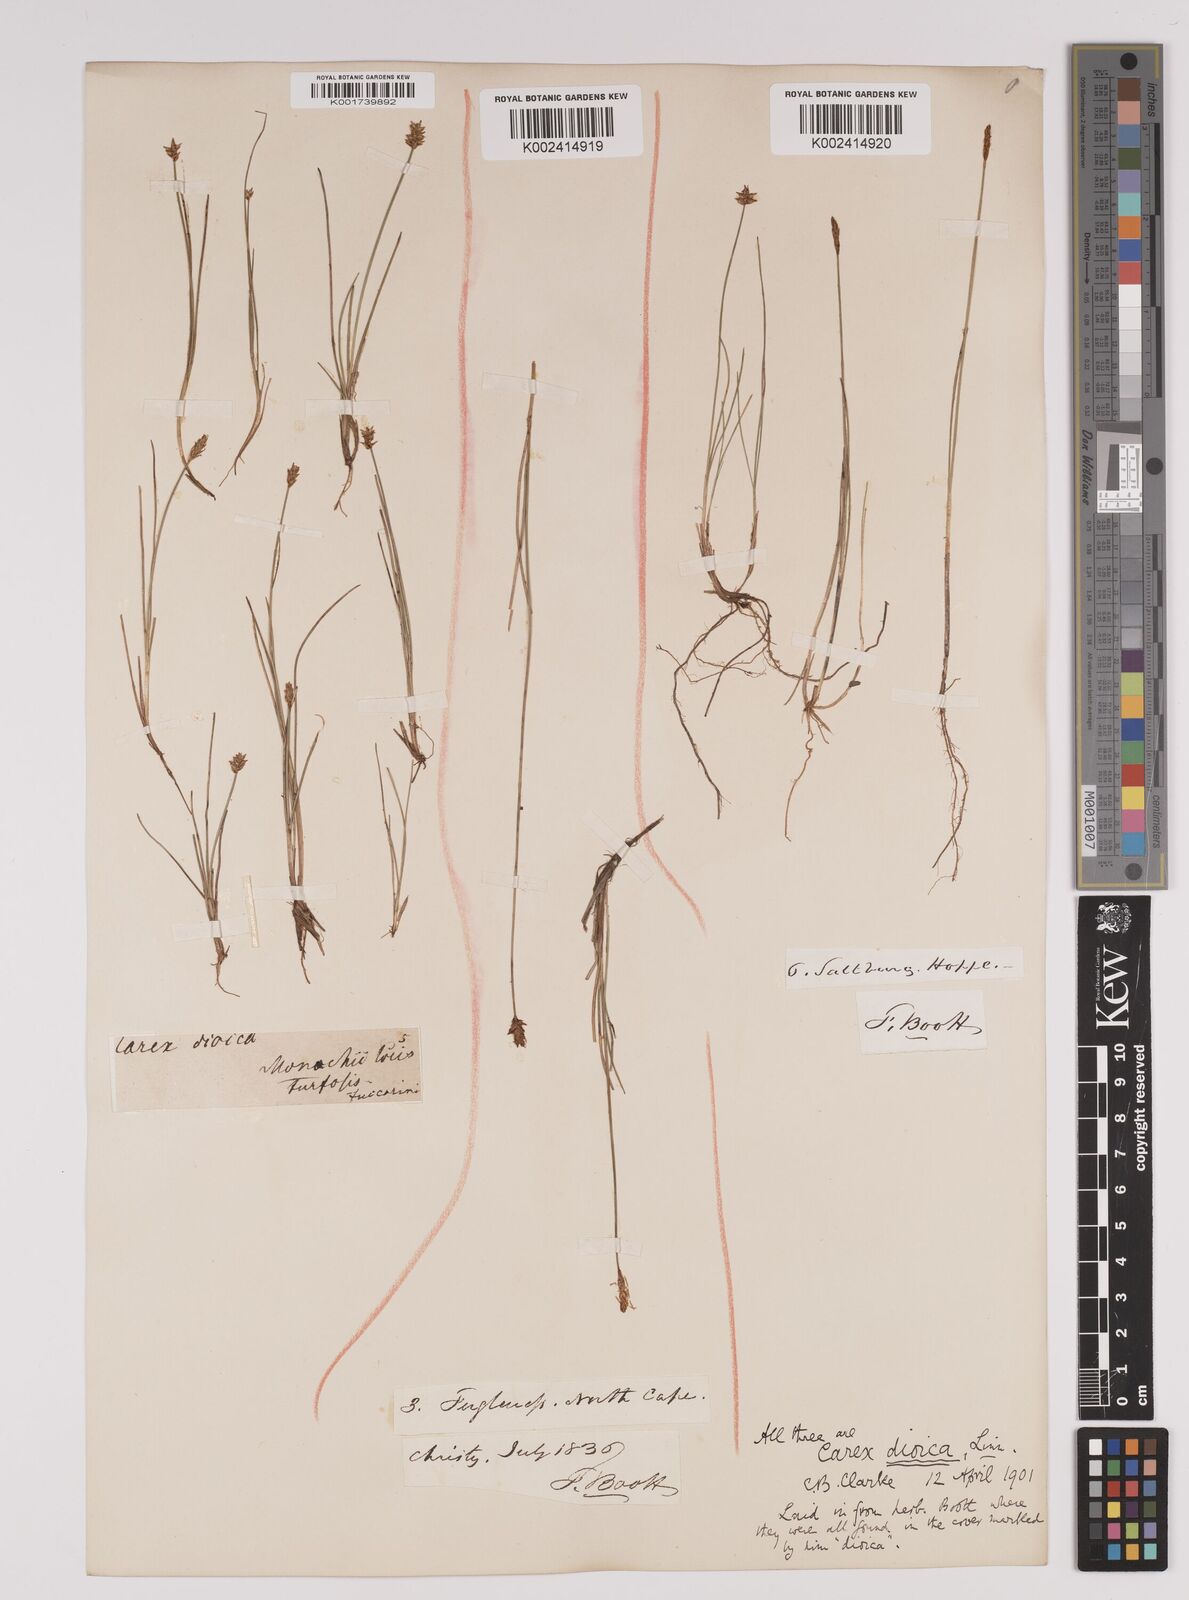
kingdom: Plantae
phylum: Tracheophyta
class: Liliopsida
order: Poales
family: Cyperaceae
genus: Carex
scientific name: Carex dioica
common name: Dioecious sedge
